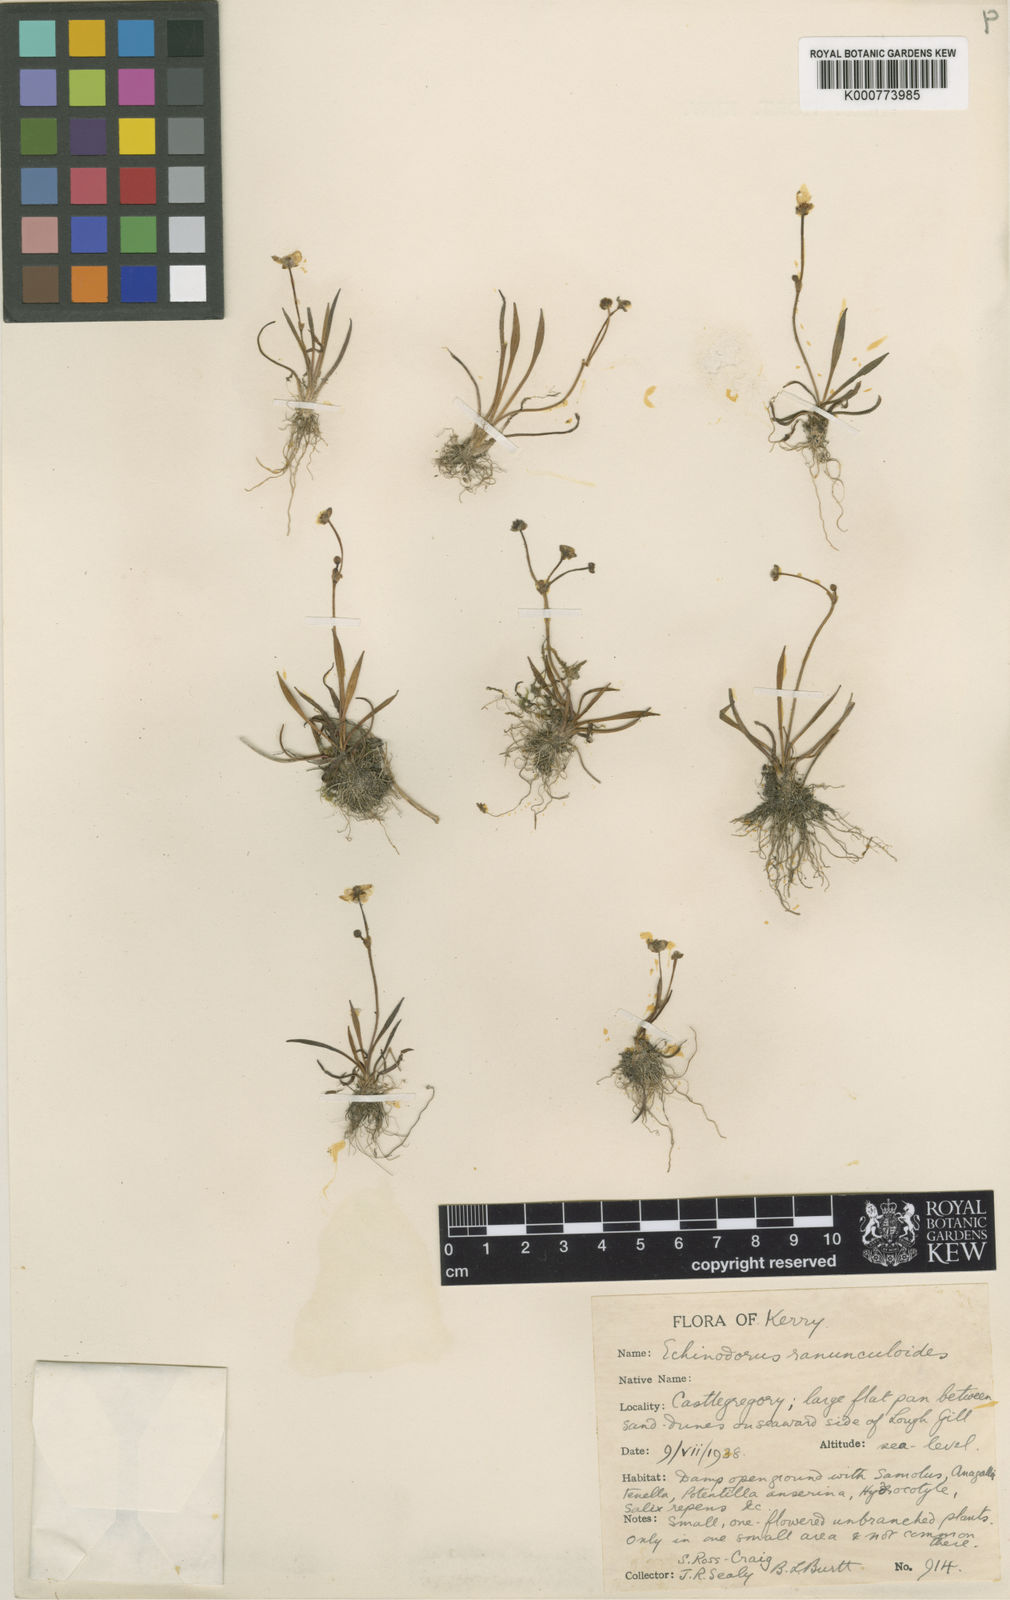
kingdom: Plantae
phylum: Tracheophyta
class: Liliopsida
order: Alismatales
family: Alismataceae
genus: Baldellia
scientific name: Baldellia ranunculoides
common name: Lesser water-plantain
